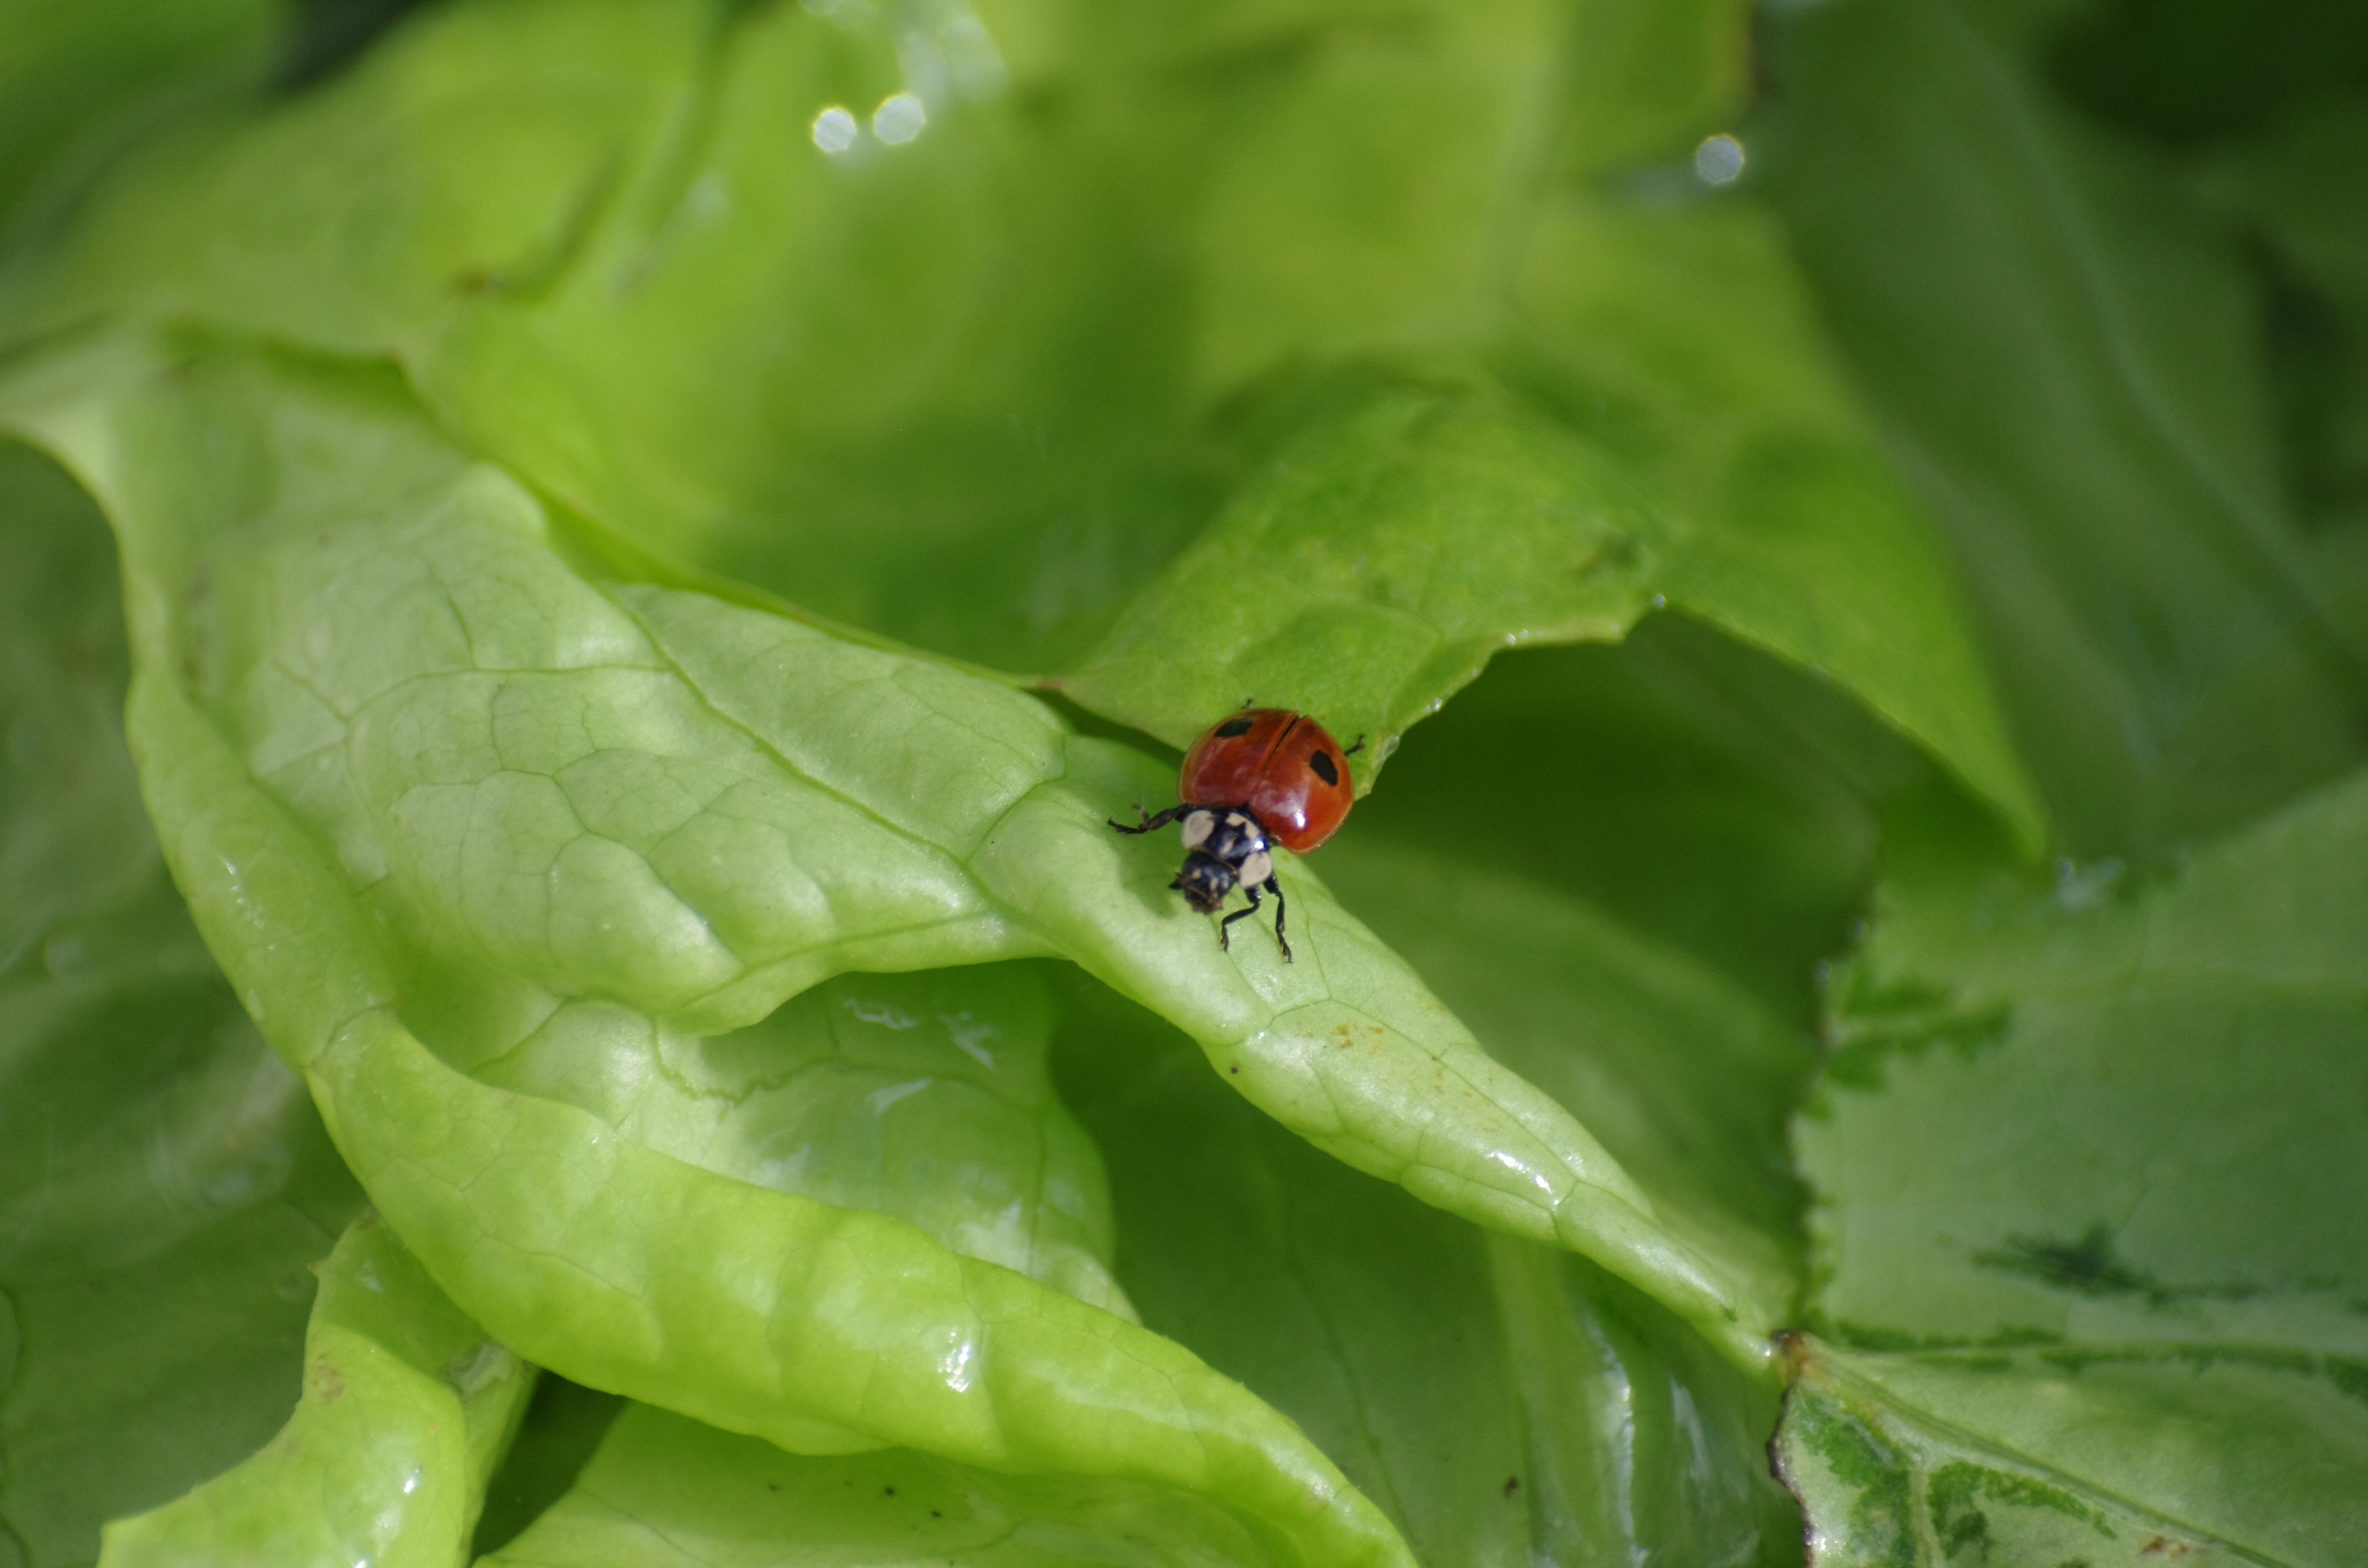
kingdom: Animalia
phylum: Arthropoda
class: Insecta
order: Coleoptera
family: Coccinellidae
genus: Adalia
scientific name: Adalia bipunctata
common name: Toplettet mariehøne
